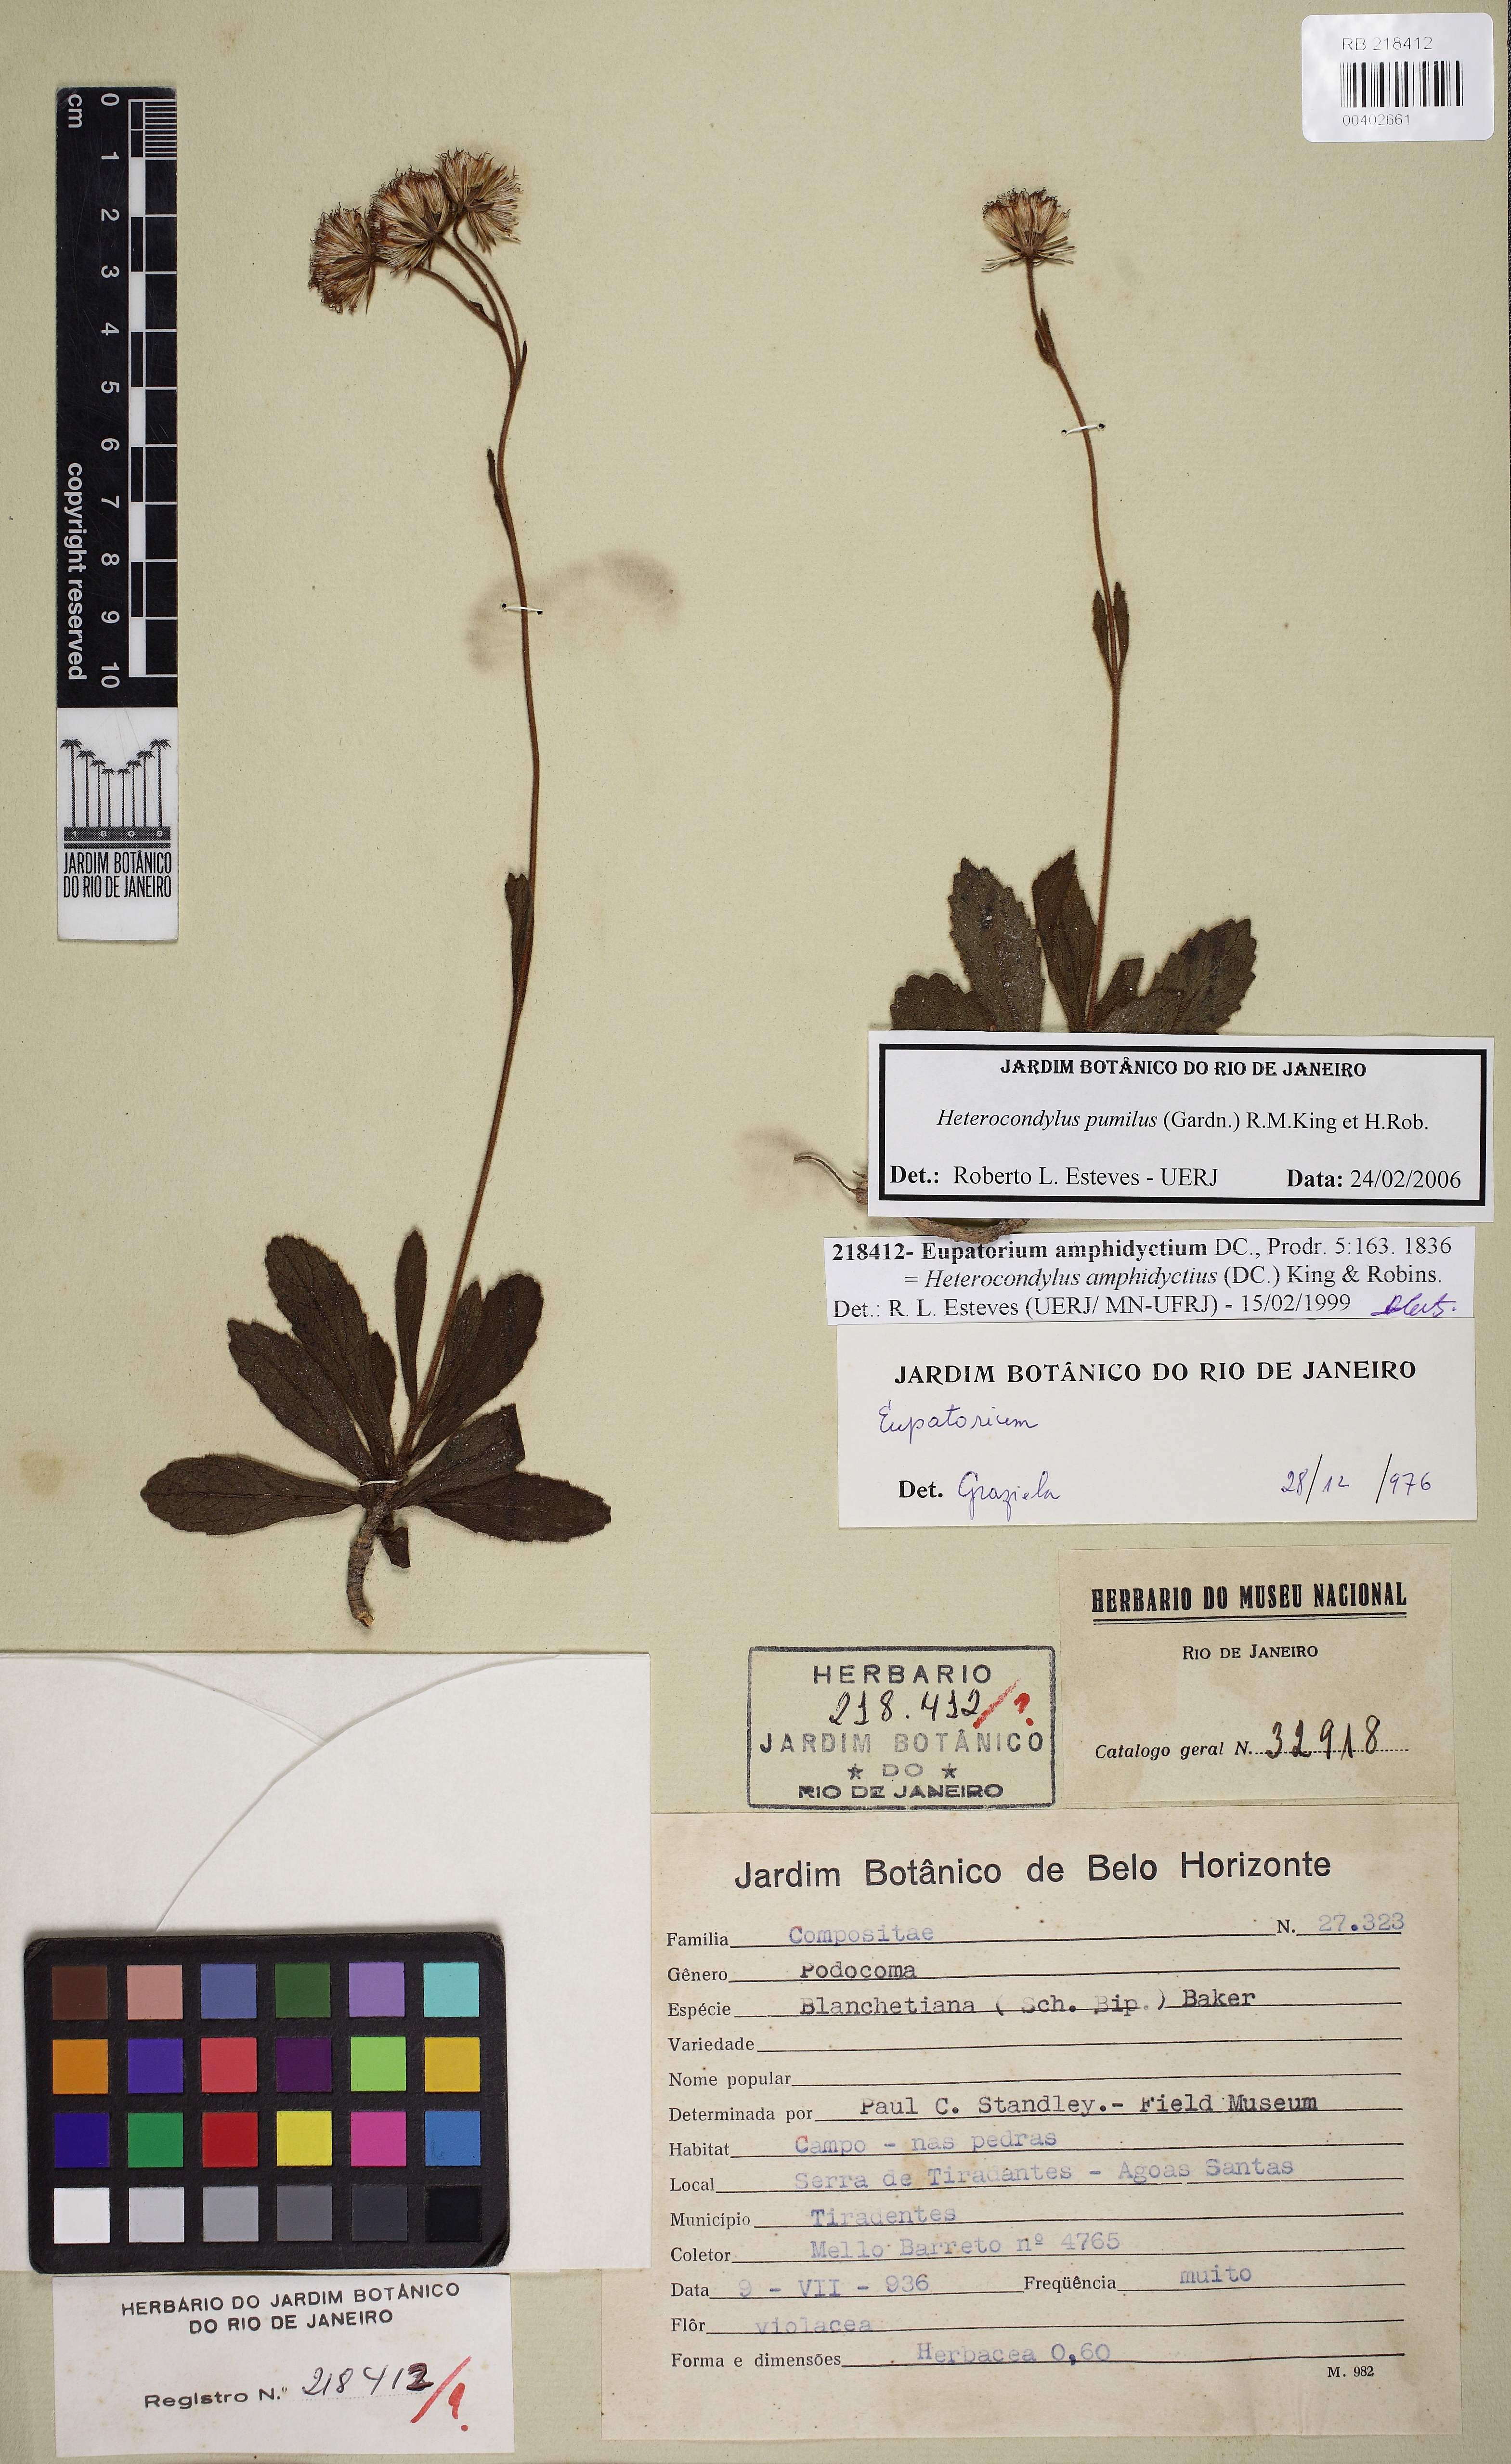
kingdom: Plantae
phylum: Tracheophyta
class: Magnoliopsida
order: Asterales
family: Asteraceae
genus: Heterocondylus
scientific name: Heterocondylus pumilus
